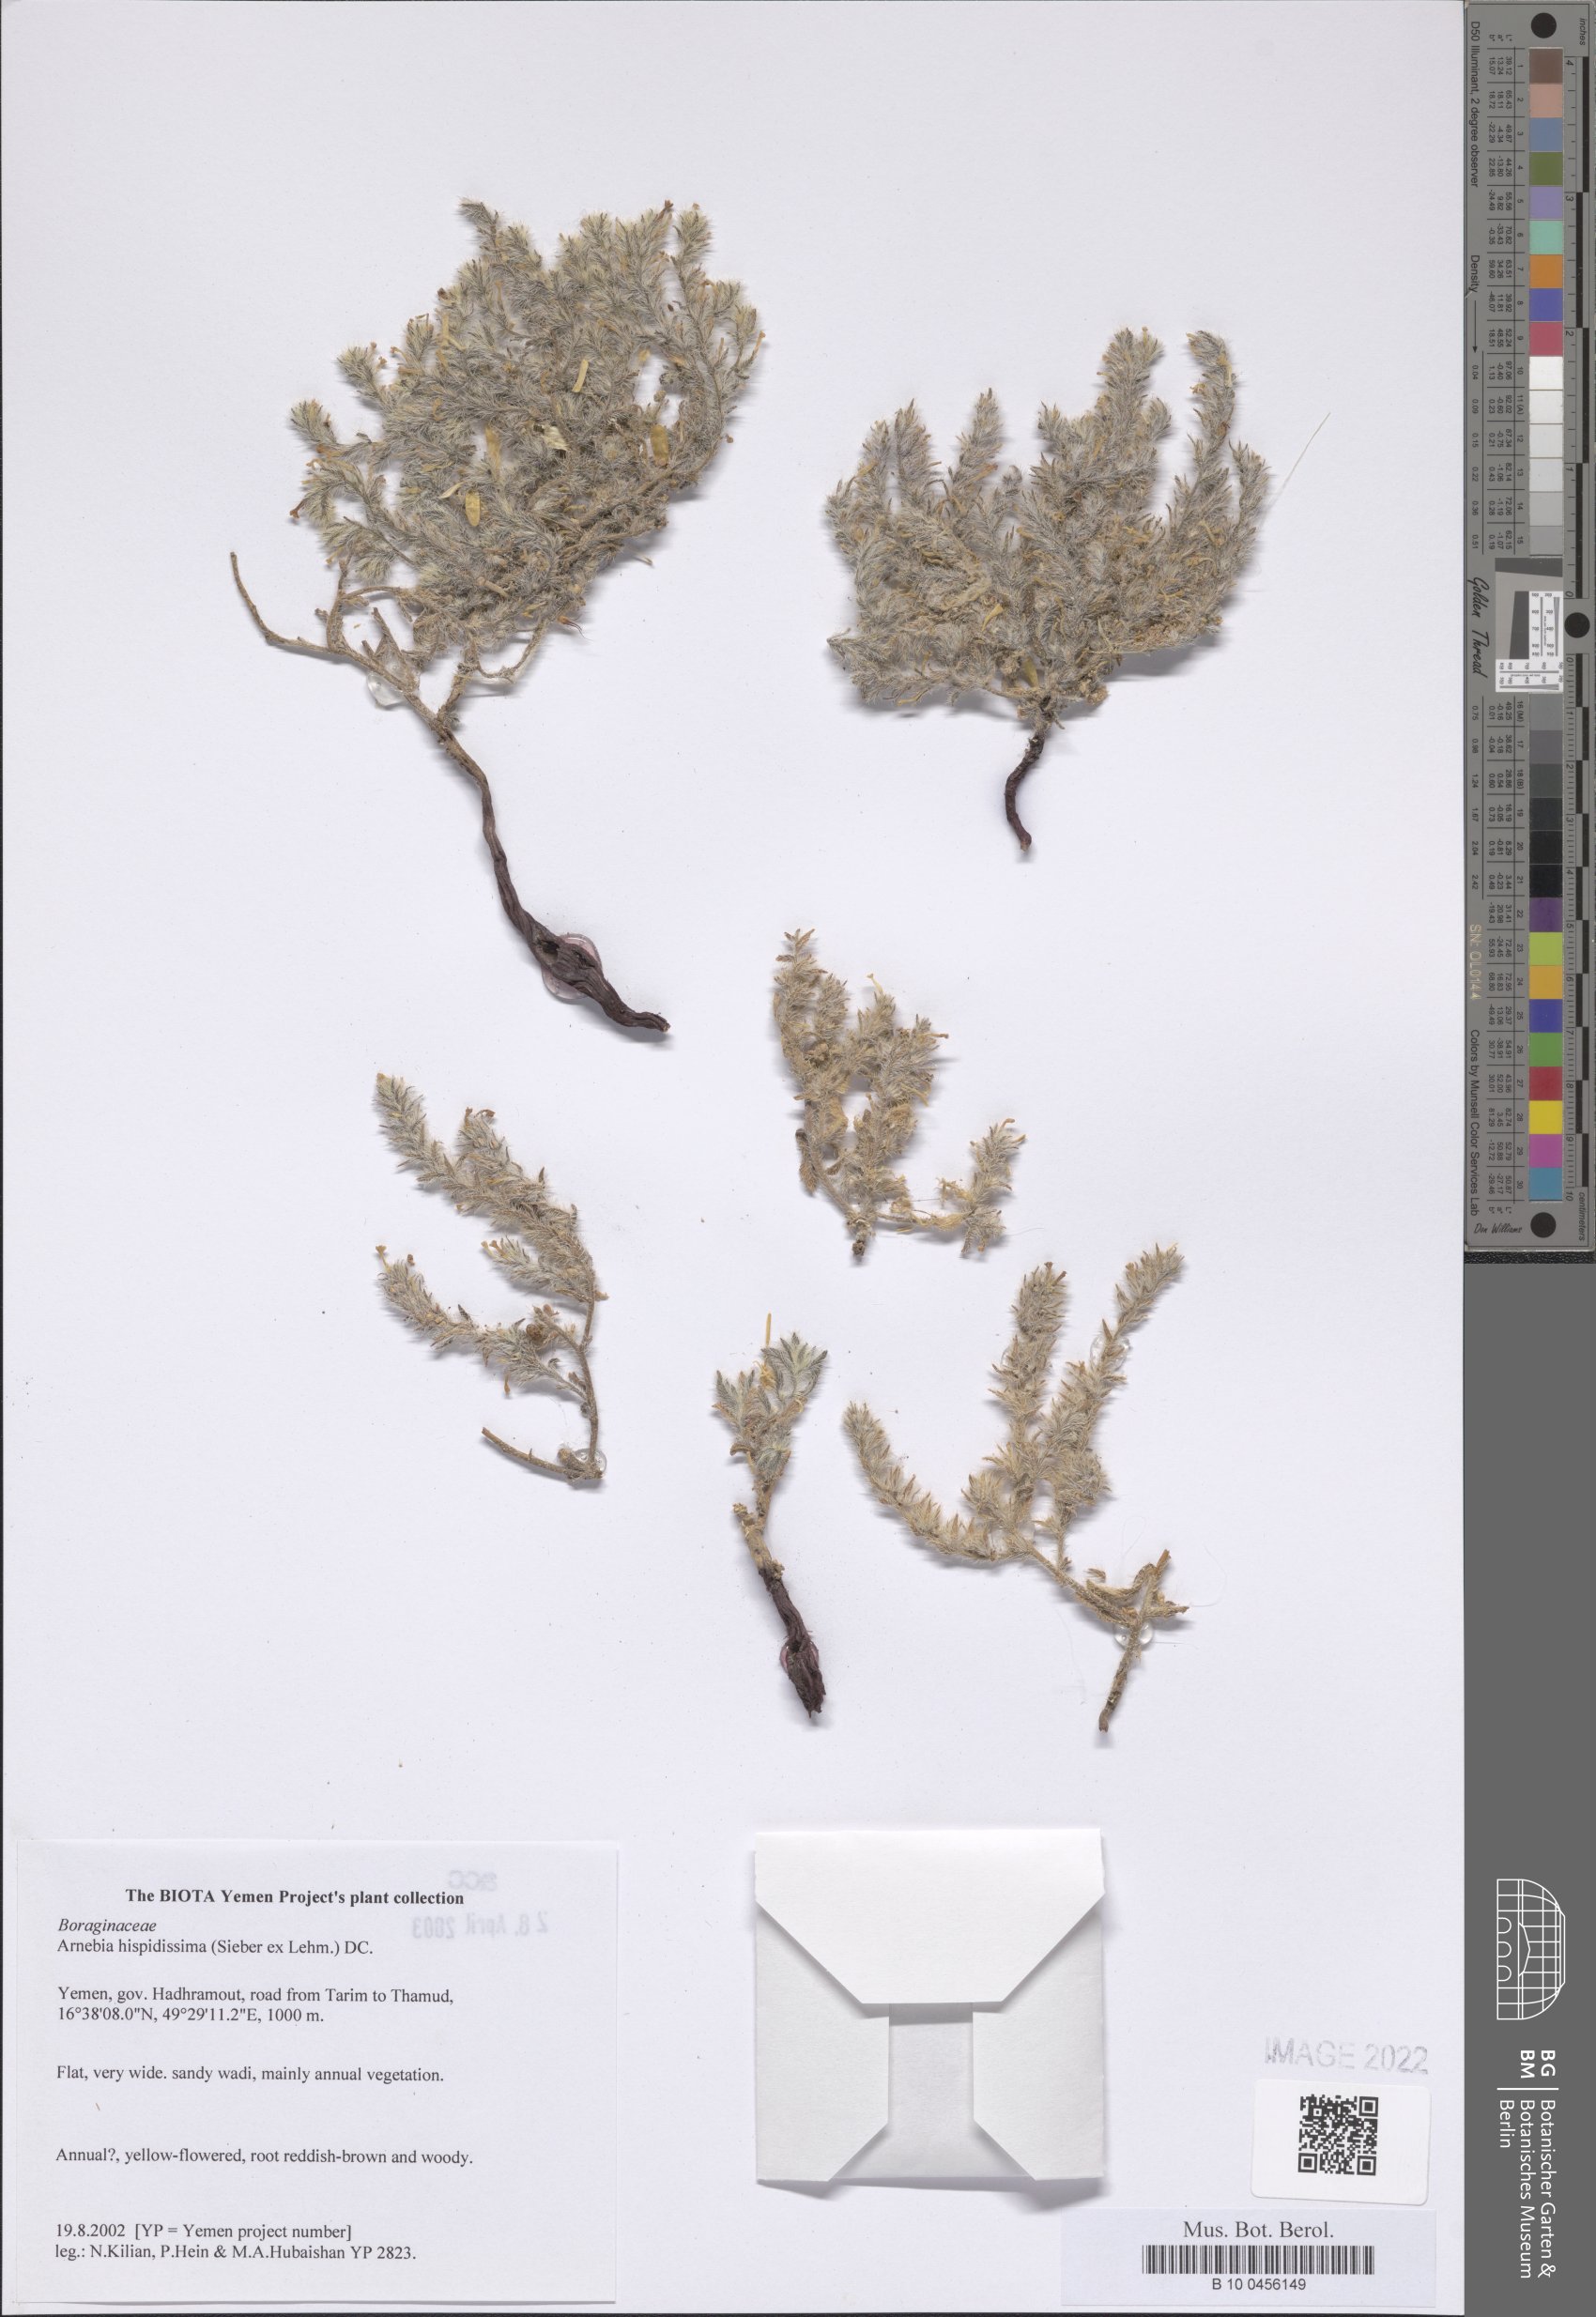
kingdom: Plantae
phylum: Tracheophyta
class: Magnoliopsida
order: Boraginales
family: Boraginaceae
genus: Arnebia
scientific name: Arnebia hispidissima
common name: Arabian-primrose
